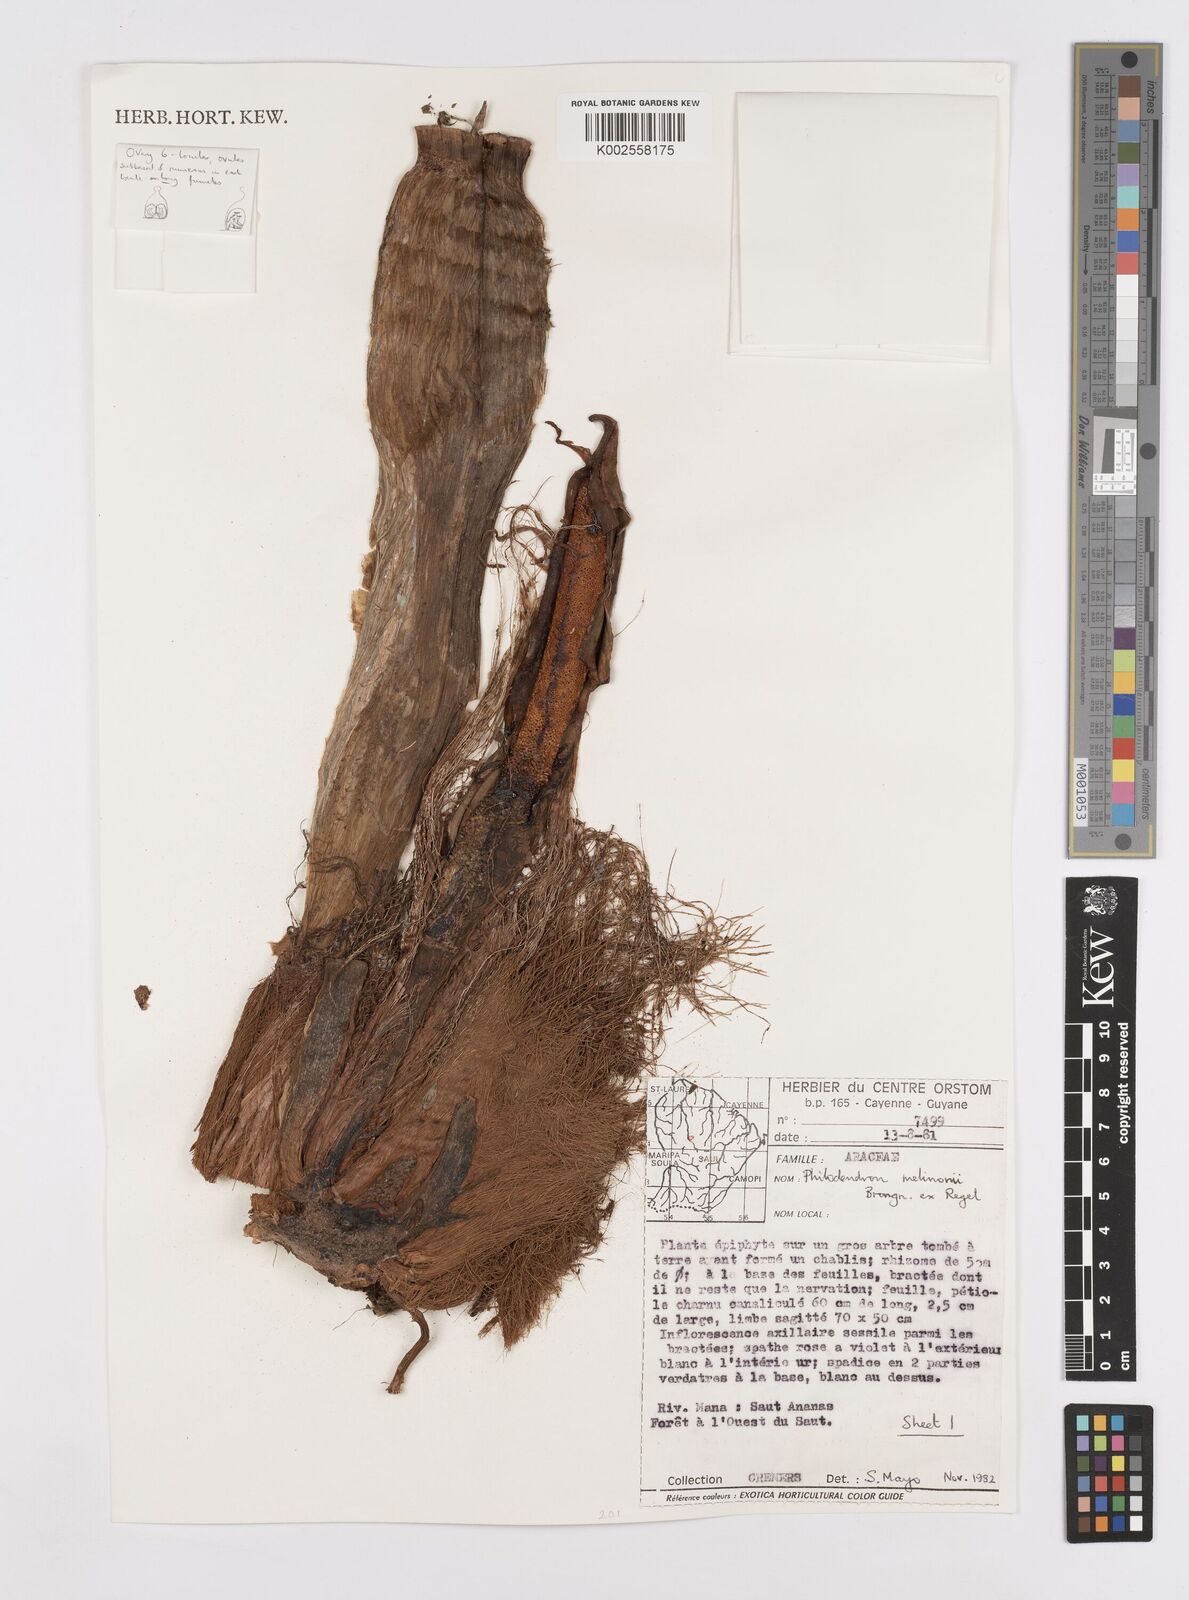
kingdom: Plantae
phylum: Tracheophyta
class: Liliopsida
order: Alismatales
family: Araceae
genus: Philodendron
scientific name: Philodendron melinonii
